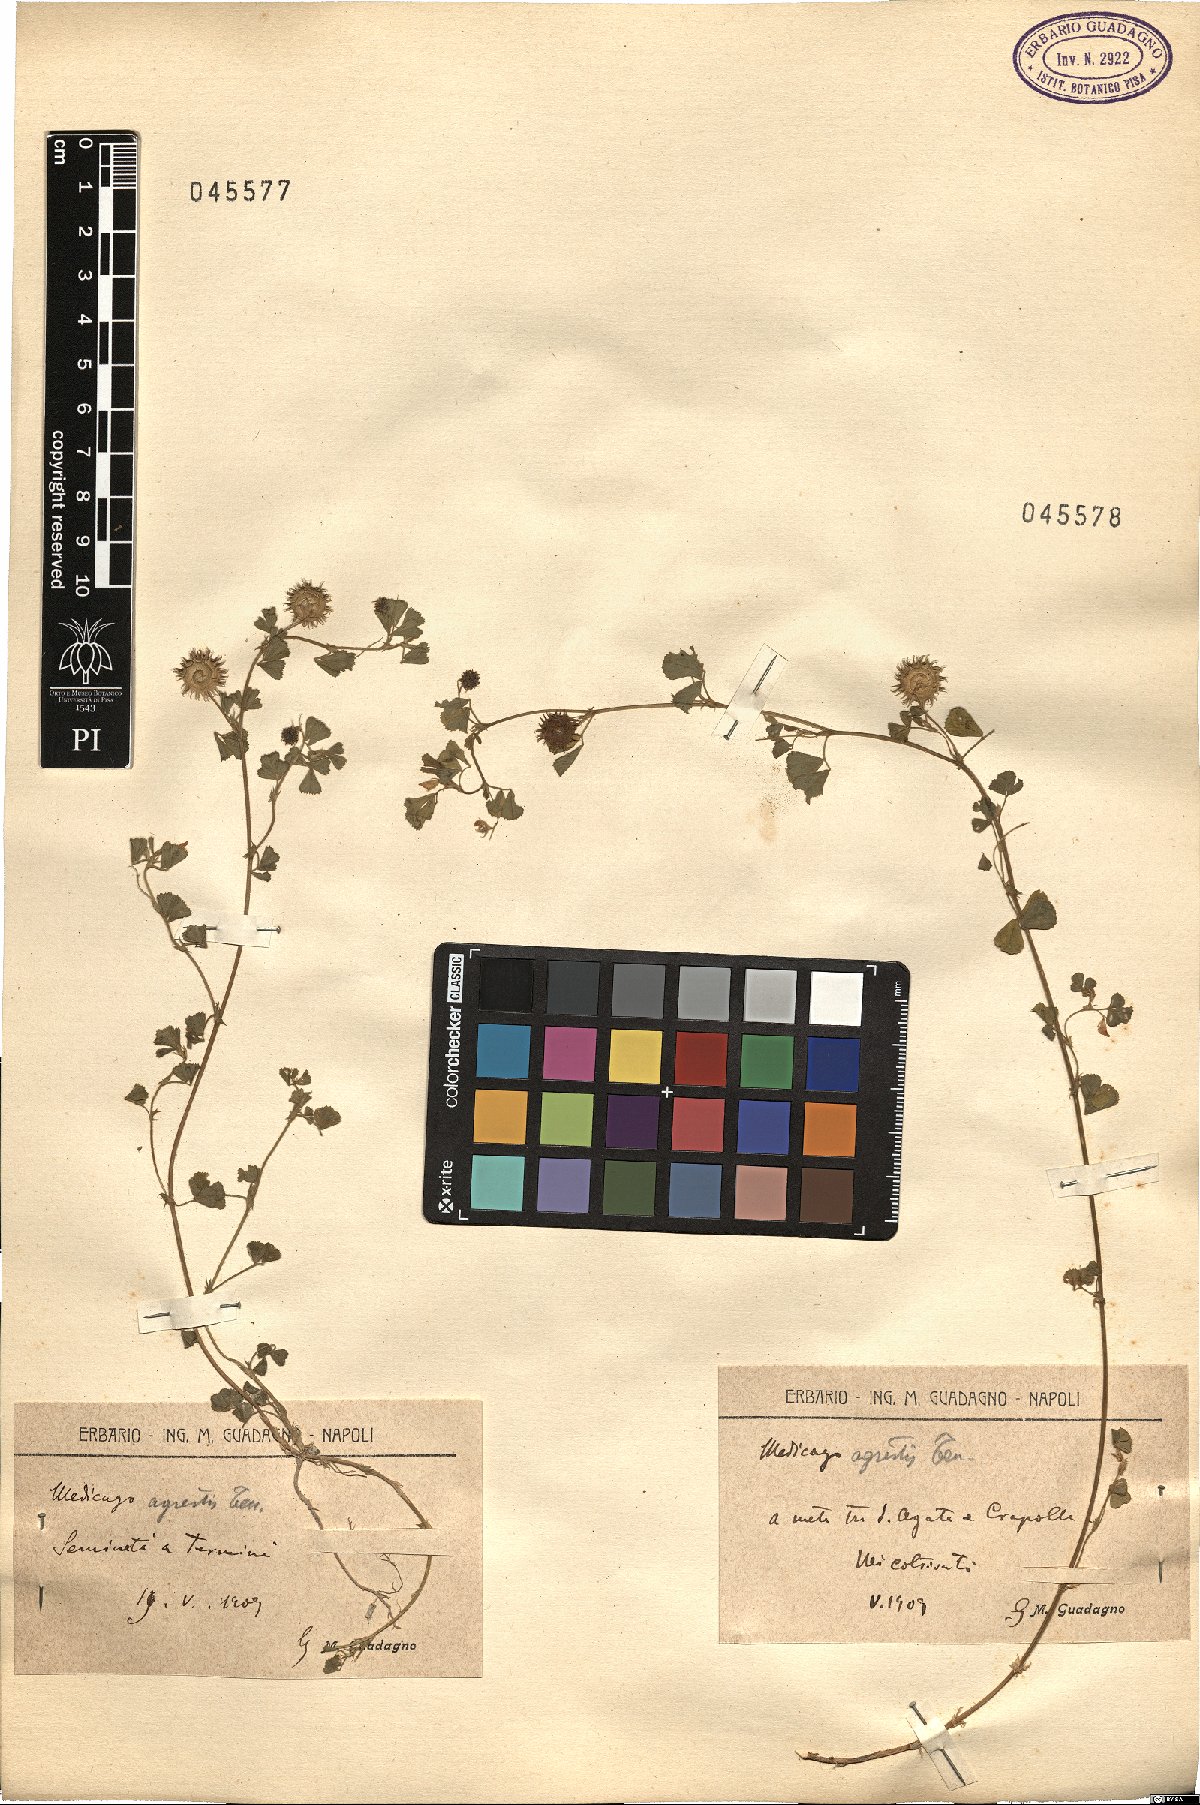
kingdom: Plantae
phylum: Tracheophyta
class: Magnoliopsida
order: Fabales
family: Fabaceae
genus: Medicago
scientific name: Medicago rigidula
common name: Tifton medic
